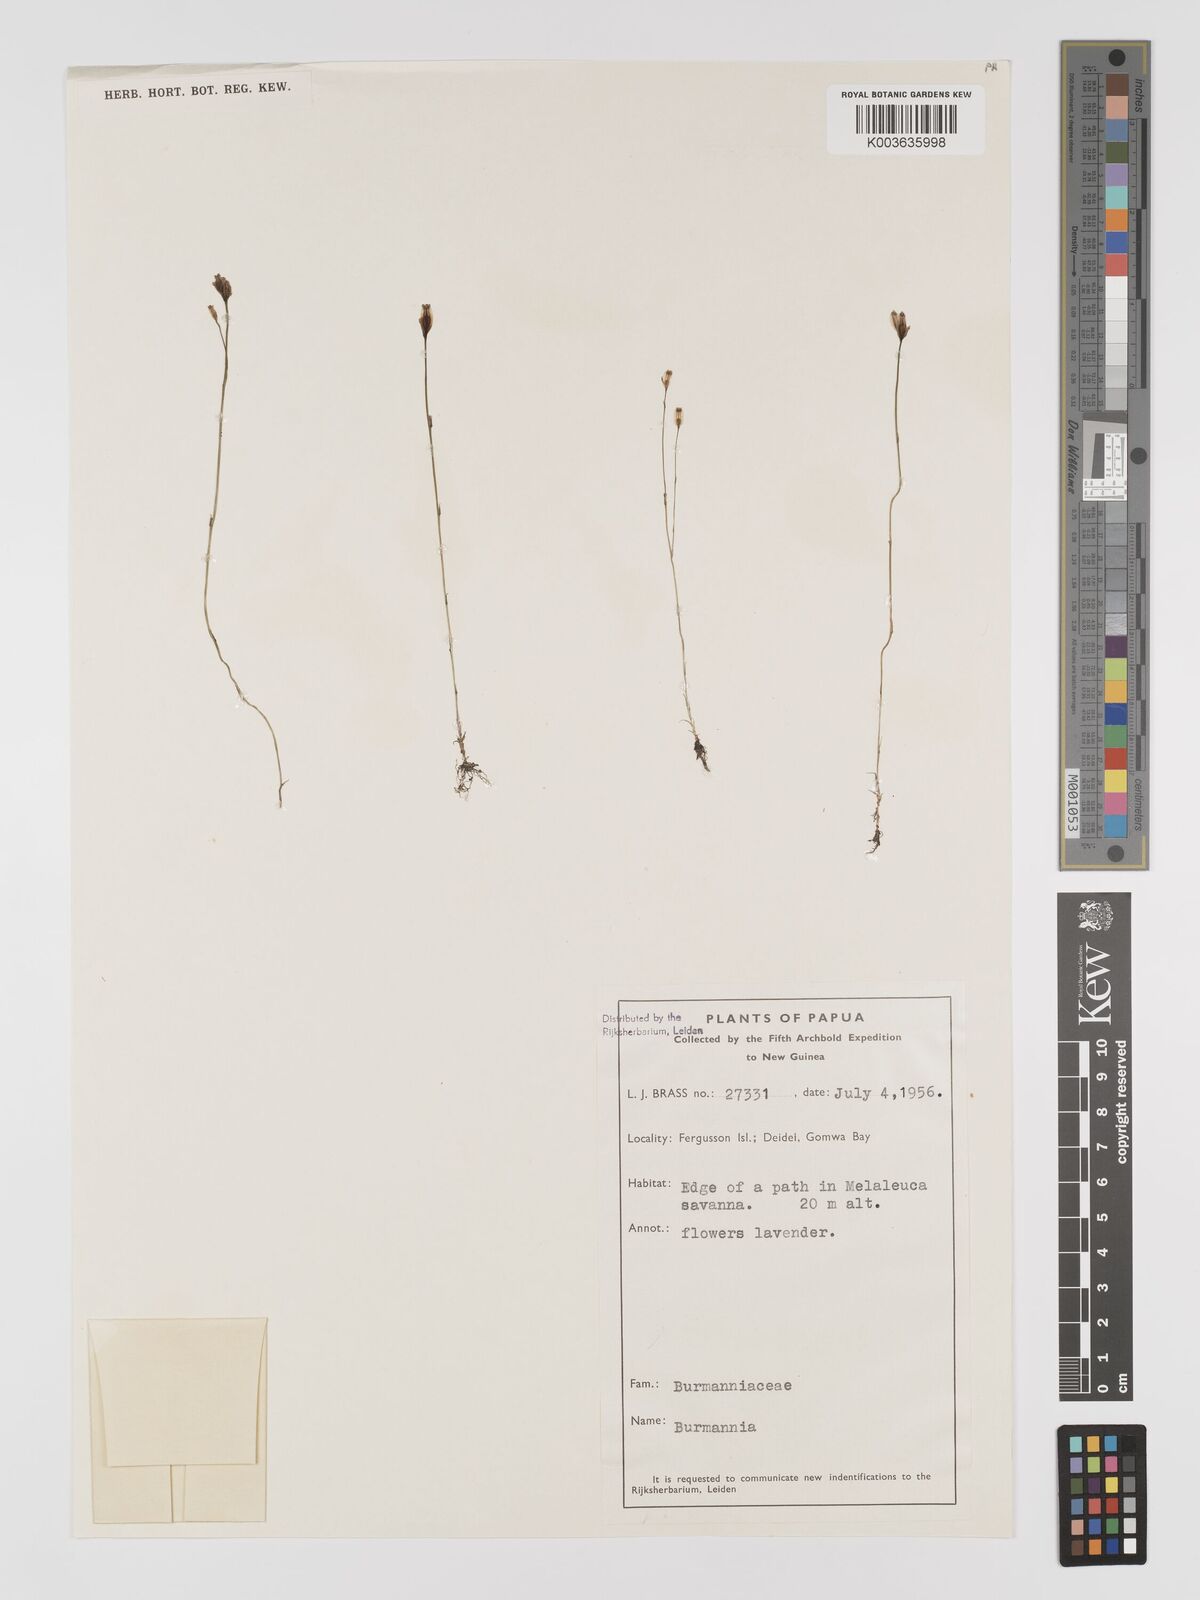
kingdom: Plantae
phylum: Tracheophyta
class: Liliopsida
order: Dioscoreales
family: Burmanniaceae
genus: Burmannia
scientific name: Burmannia ledermannii
